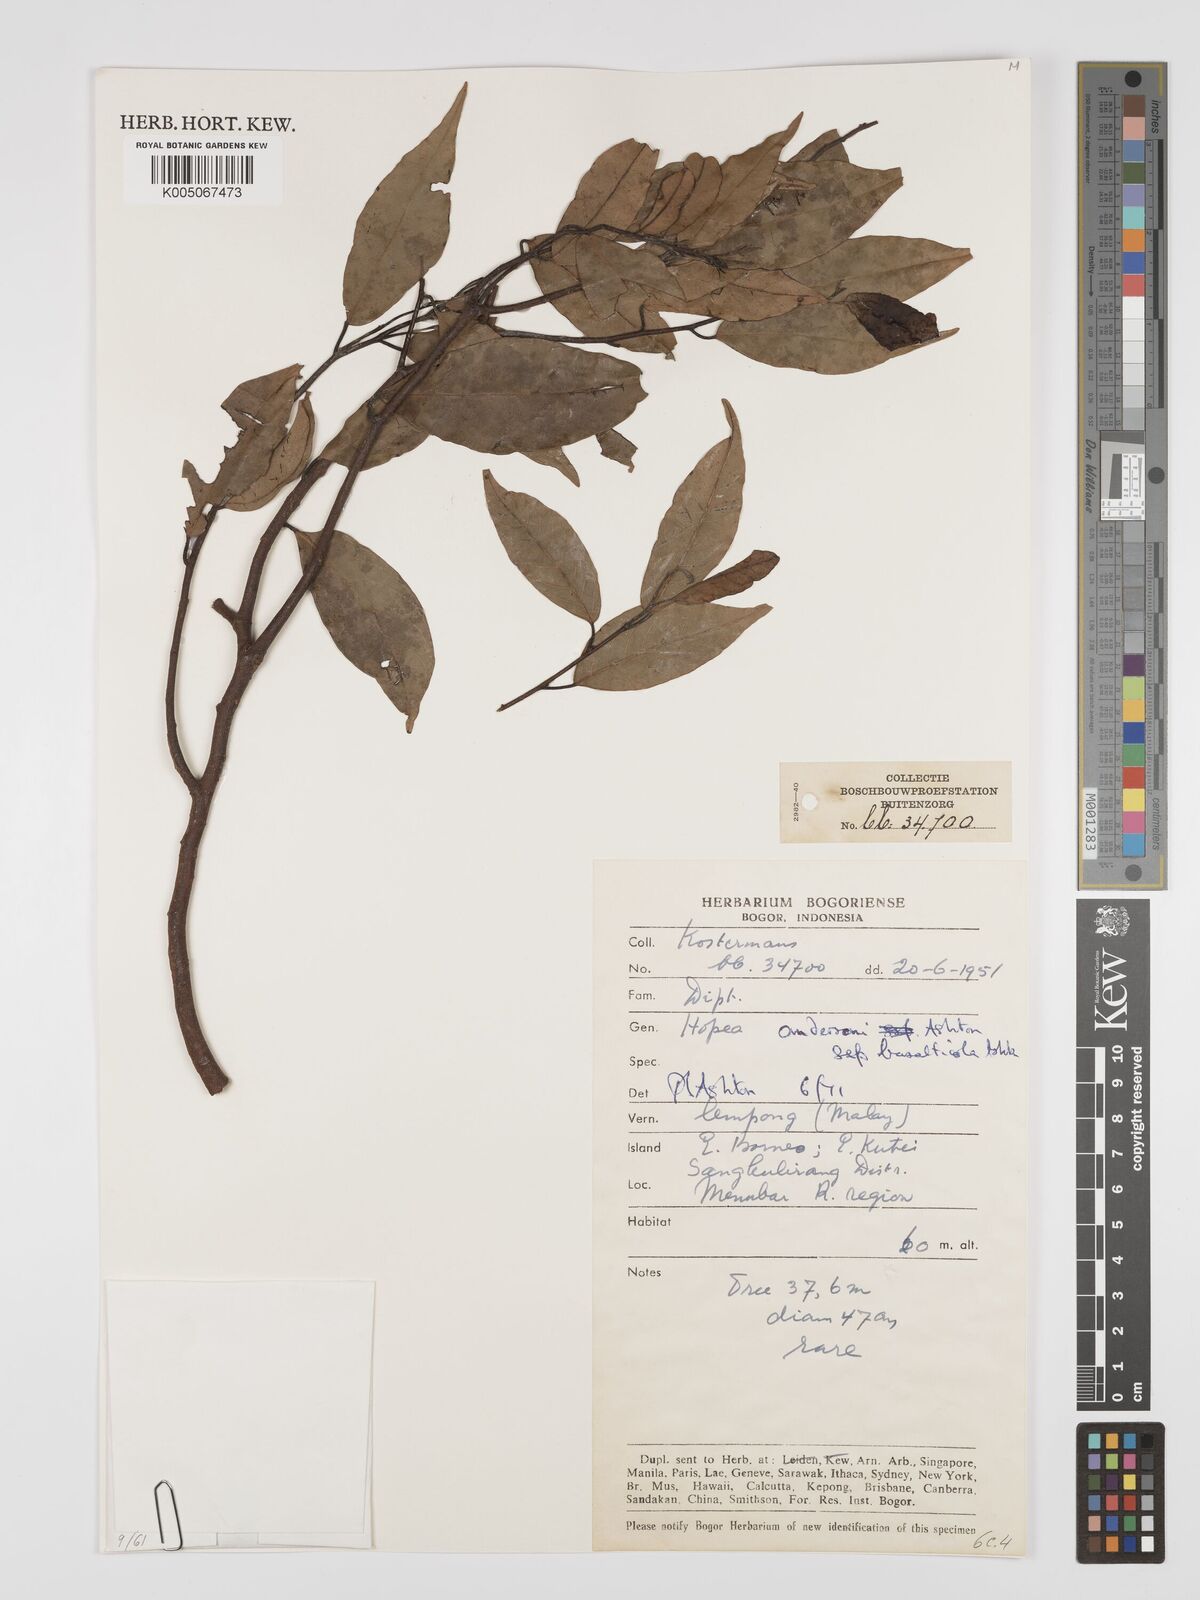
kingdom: Plantae
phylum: Tracheophyta
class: Magnoliopsida
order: Malvales
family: Dipterocarpaceae
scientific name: Dipterocarpaceae
